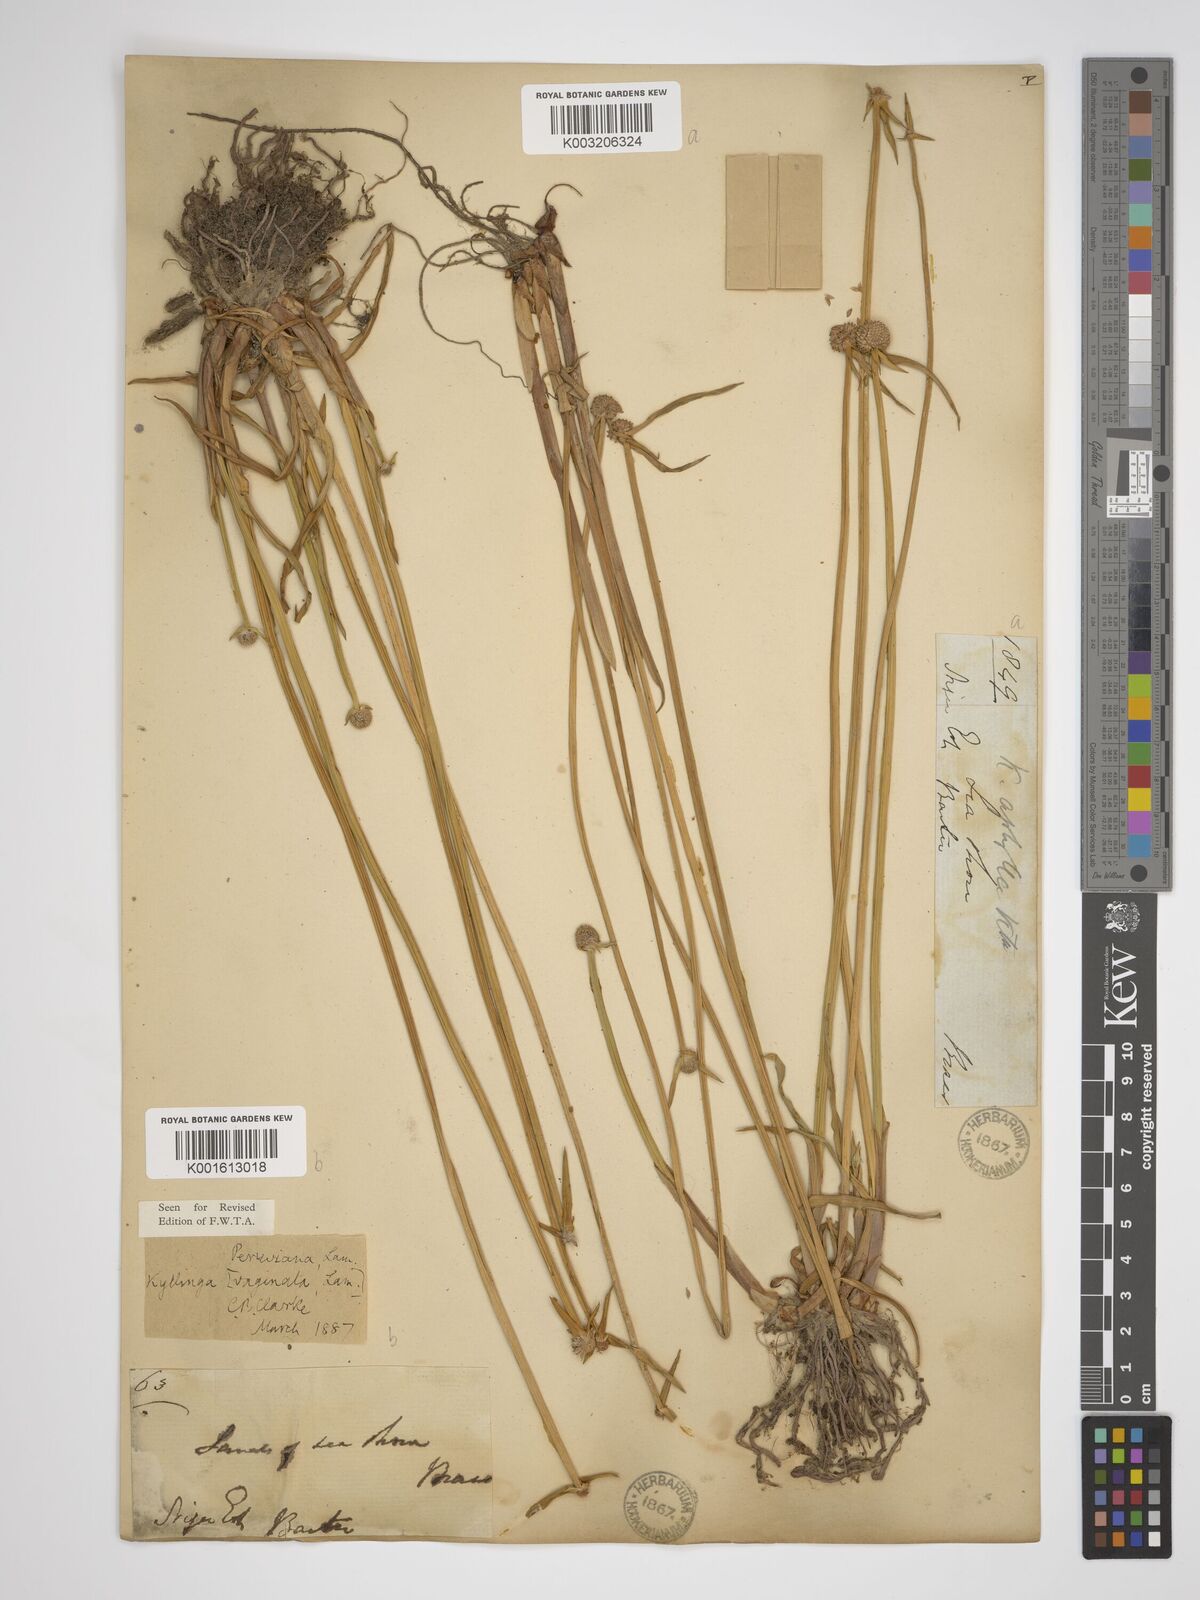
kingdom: Plantae
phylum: Tracheophyta
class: Liliopsida
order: Poales
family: Cyperaceae
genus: Cyperus
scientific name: Cyperus obtusatus
